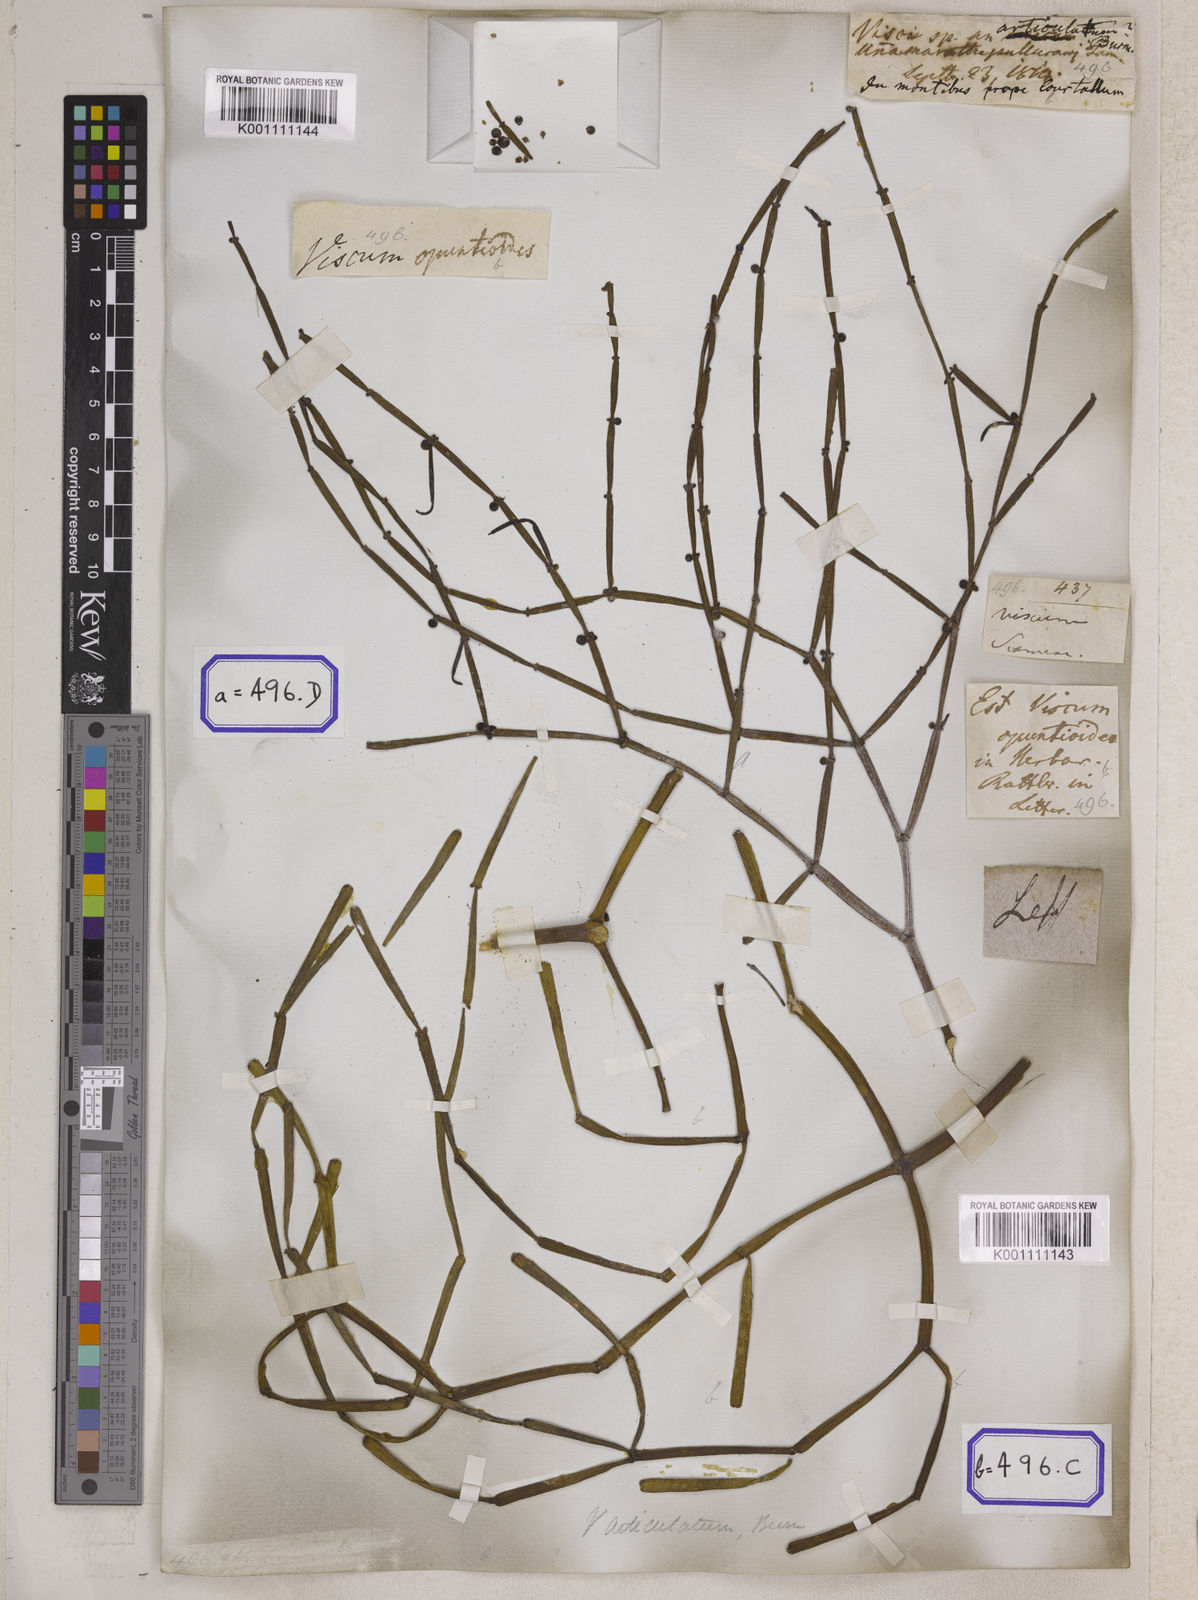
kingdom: Plantae
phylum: Tracheophyta
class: Magnoliopsida
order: Santalales
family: Viscaceae
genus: Dendrophthora
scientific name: Dendrophthora opuntioides
